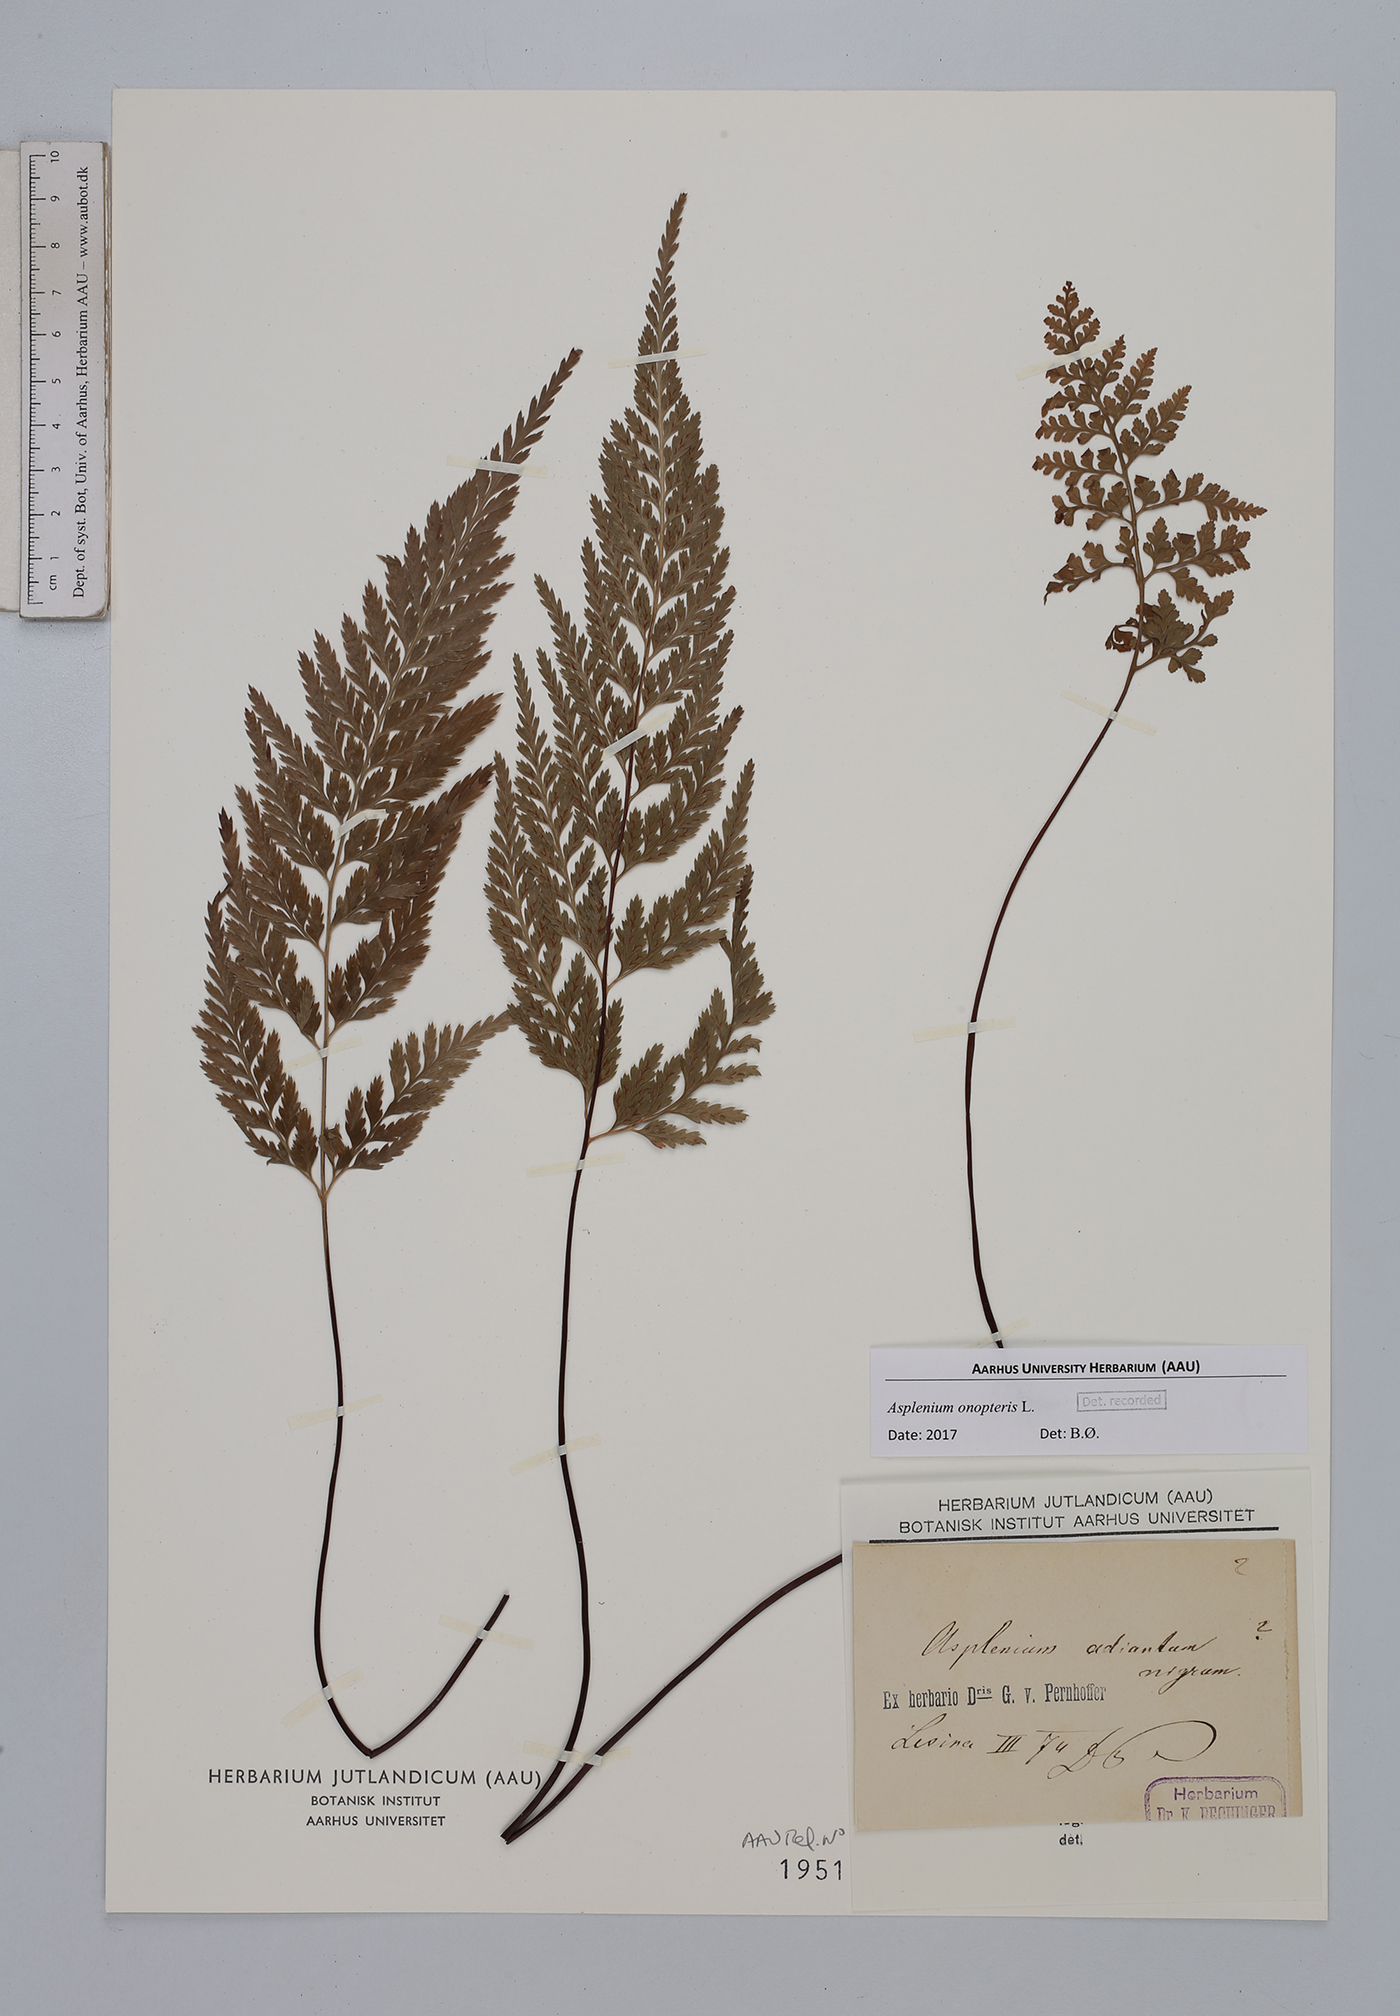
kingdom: Plantae
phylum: Tracheophyta
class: Polypodiopsida
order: Polypodiales
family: Aspleniaceae
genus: Asplenium
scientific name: Asplenium onopteris
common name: Irish spleenwort
